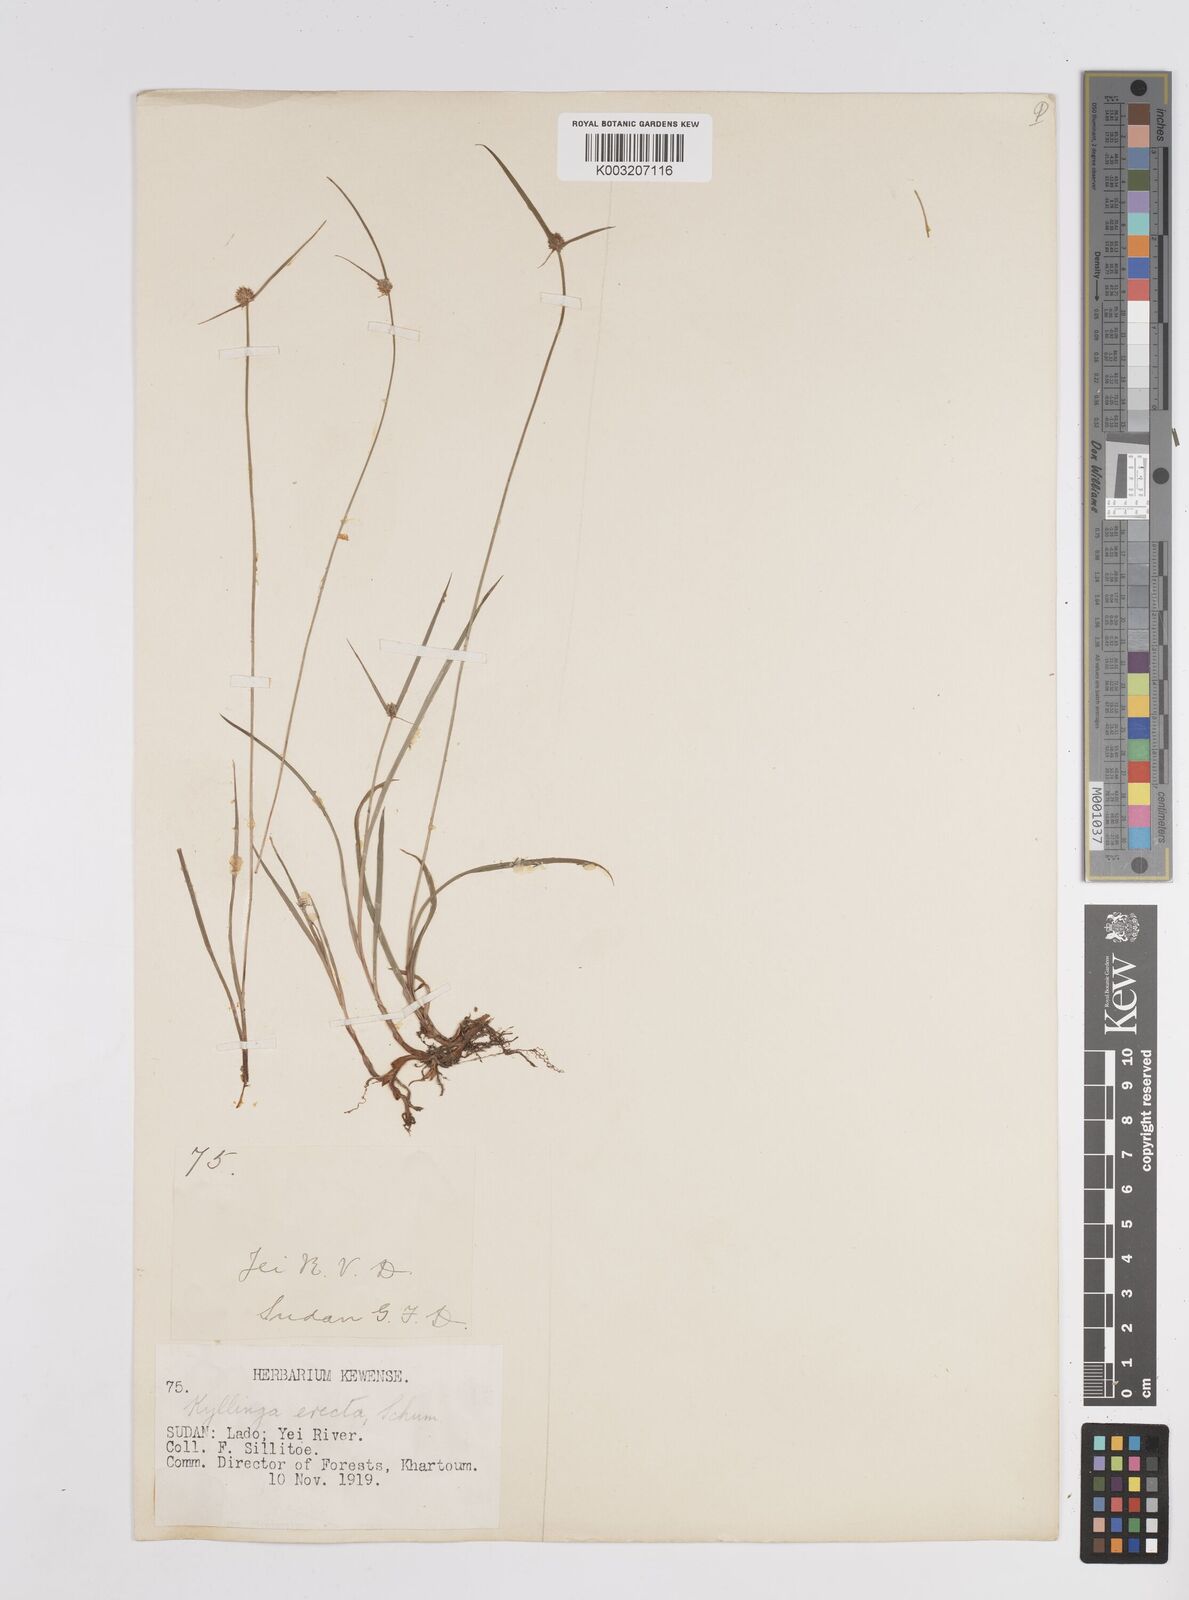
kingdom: Plantae
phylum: Tracheophyta
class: Liliopsida
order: Poales
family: Cyperaceae
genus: Cyperus
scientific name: Cyperus
